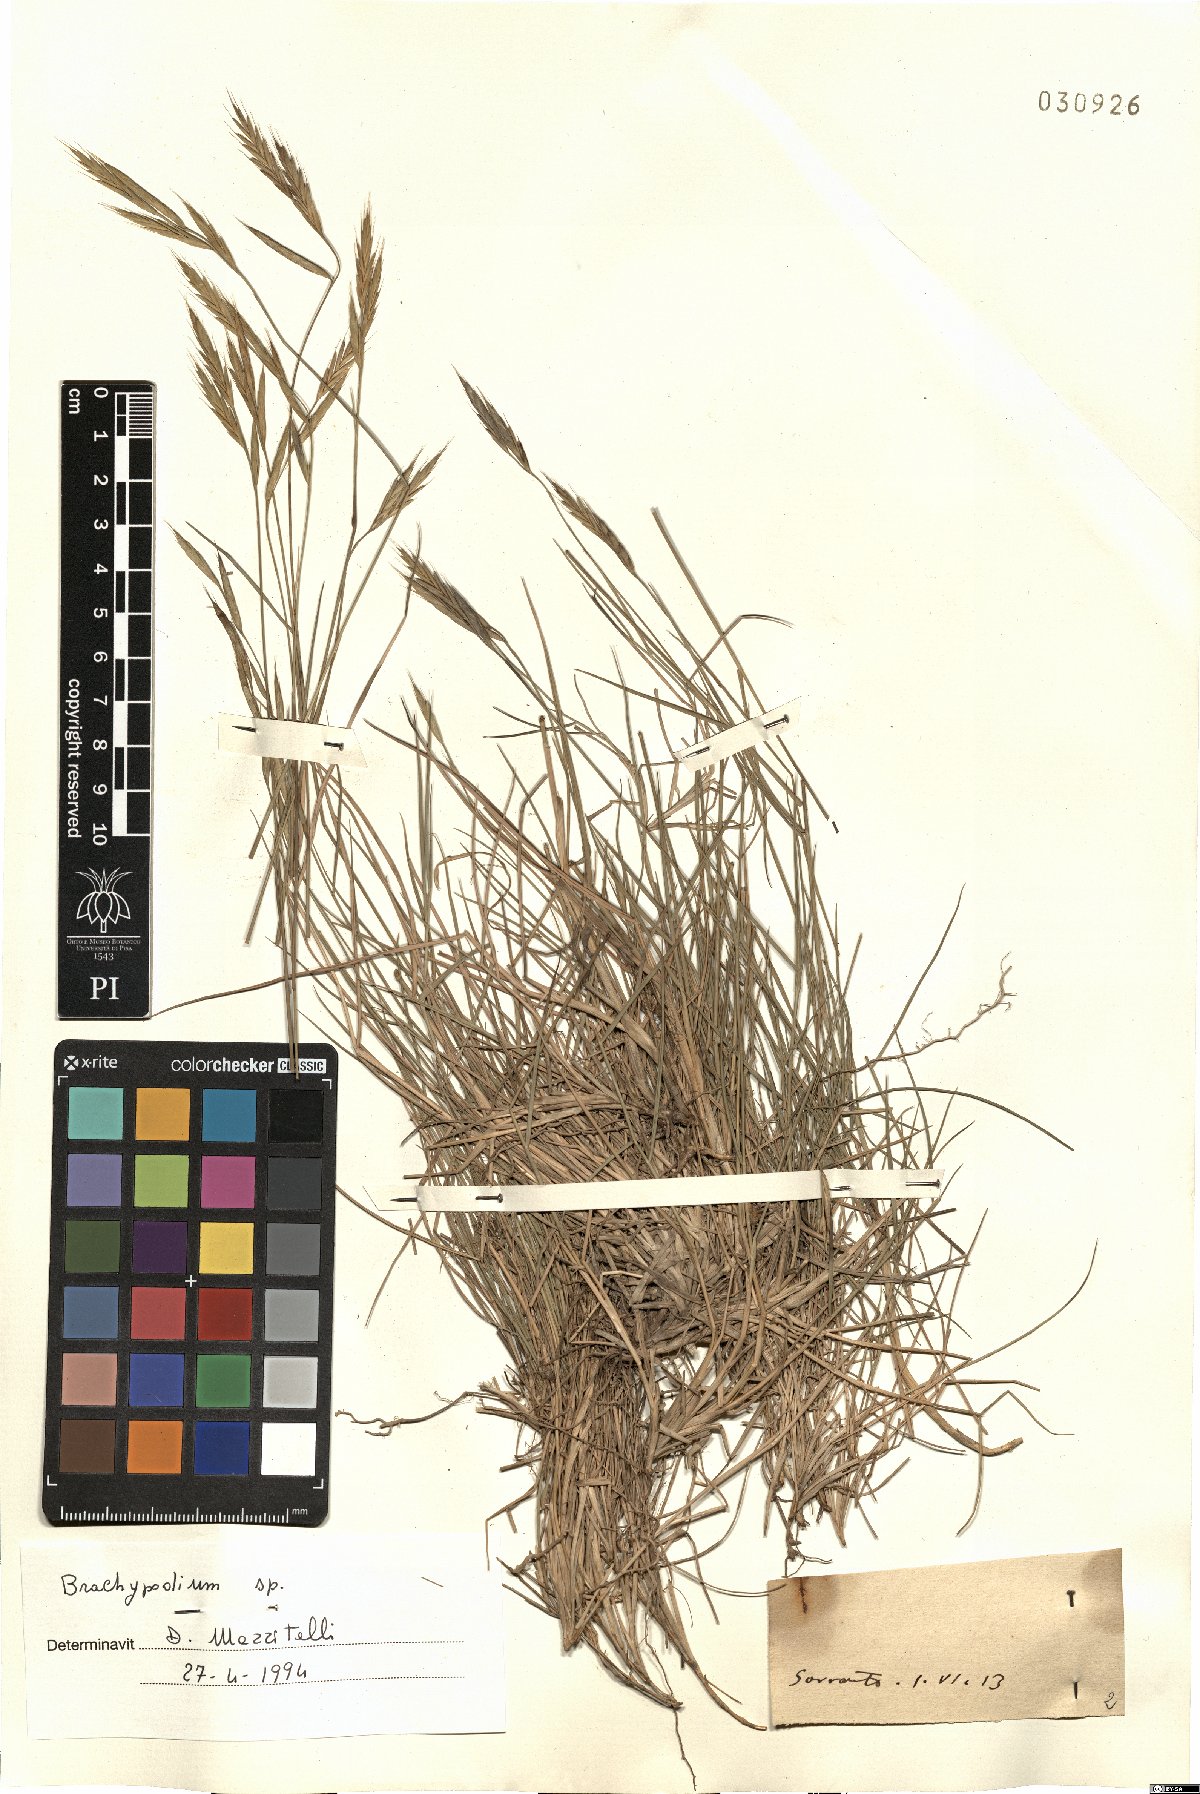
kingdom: Plantae
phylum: Tracheophyta
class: Liliopsida
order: Poales
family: Poaceae
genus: Brachypodium
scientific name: Brachypodium
